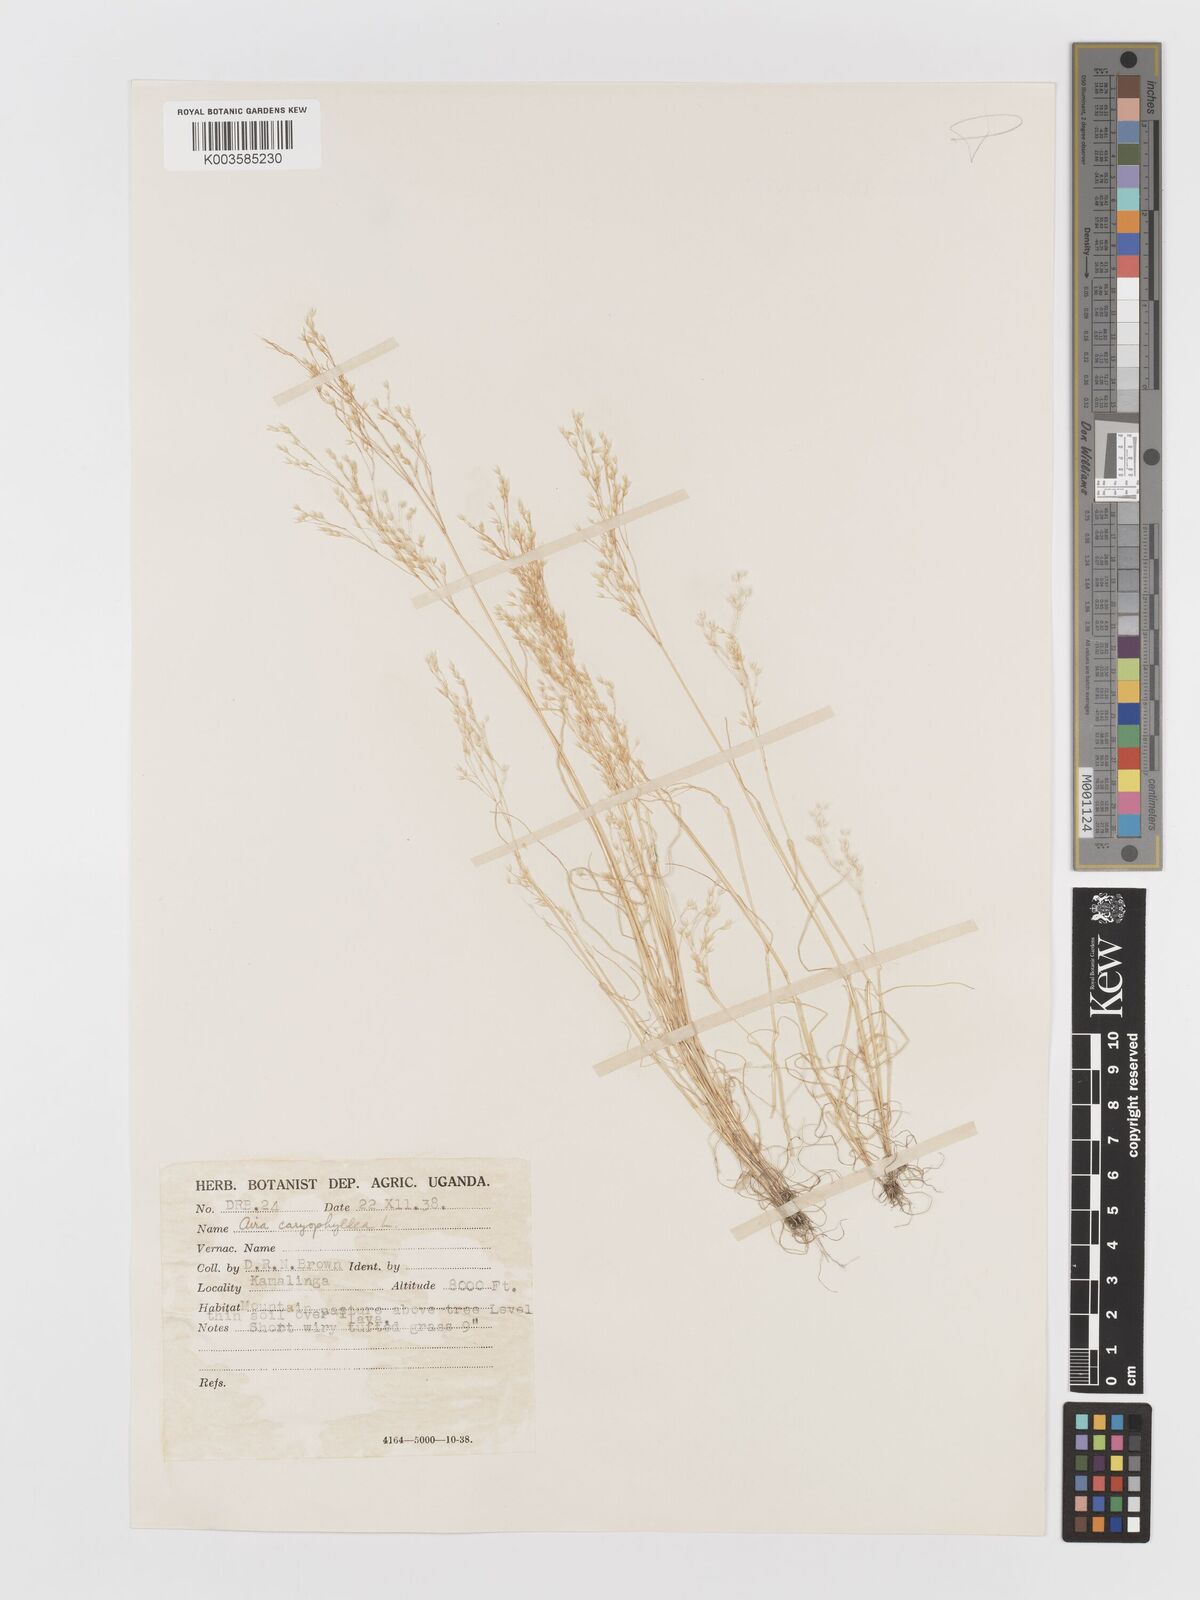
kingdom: Plantae
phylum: Tracheophyta
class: Liliopsida
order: Poales
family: Poaceae
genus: Aira
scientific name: Aira caryophyllea
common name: Silver hairgrass
